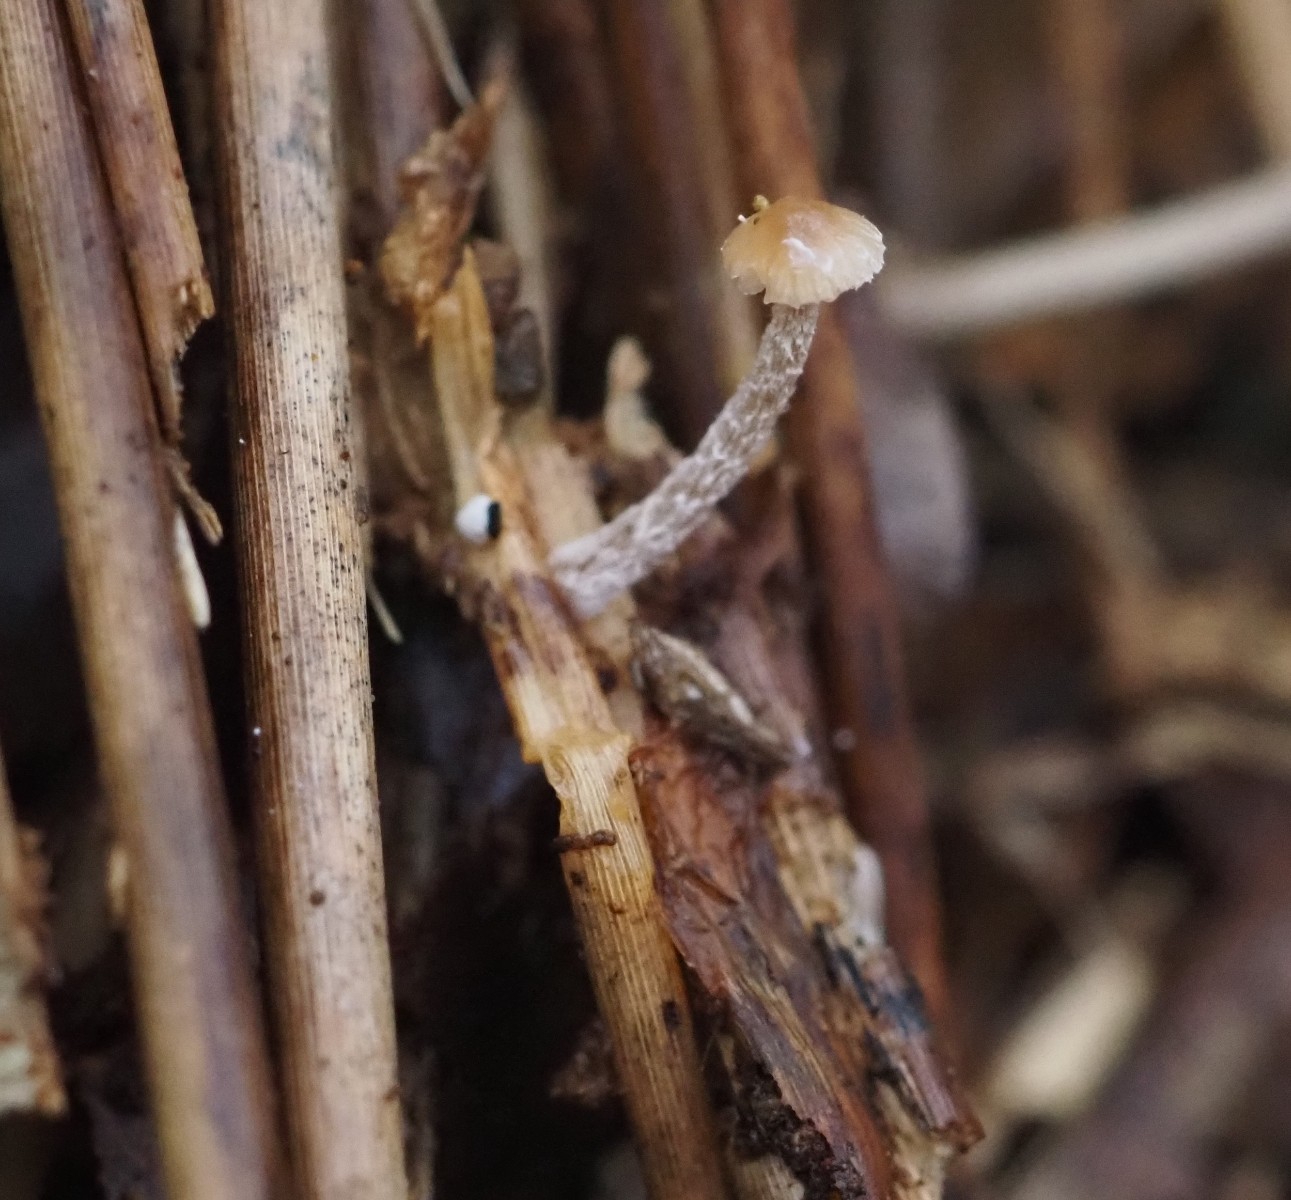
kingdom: Fungi
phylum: Basidiomycota
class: Agaricomycetes
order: Agaricales
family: Strophariaceae
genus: Deconica
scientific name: Deconica inquilina
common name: græs-stråhat
